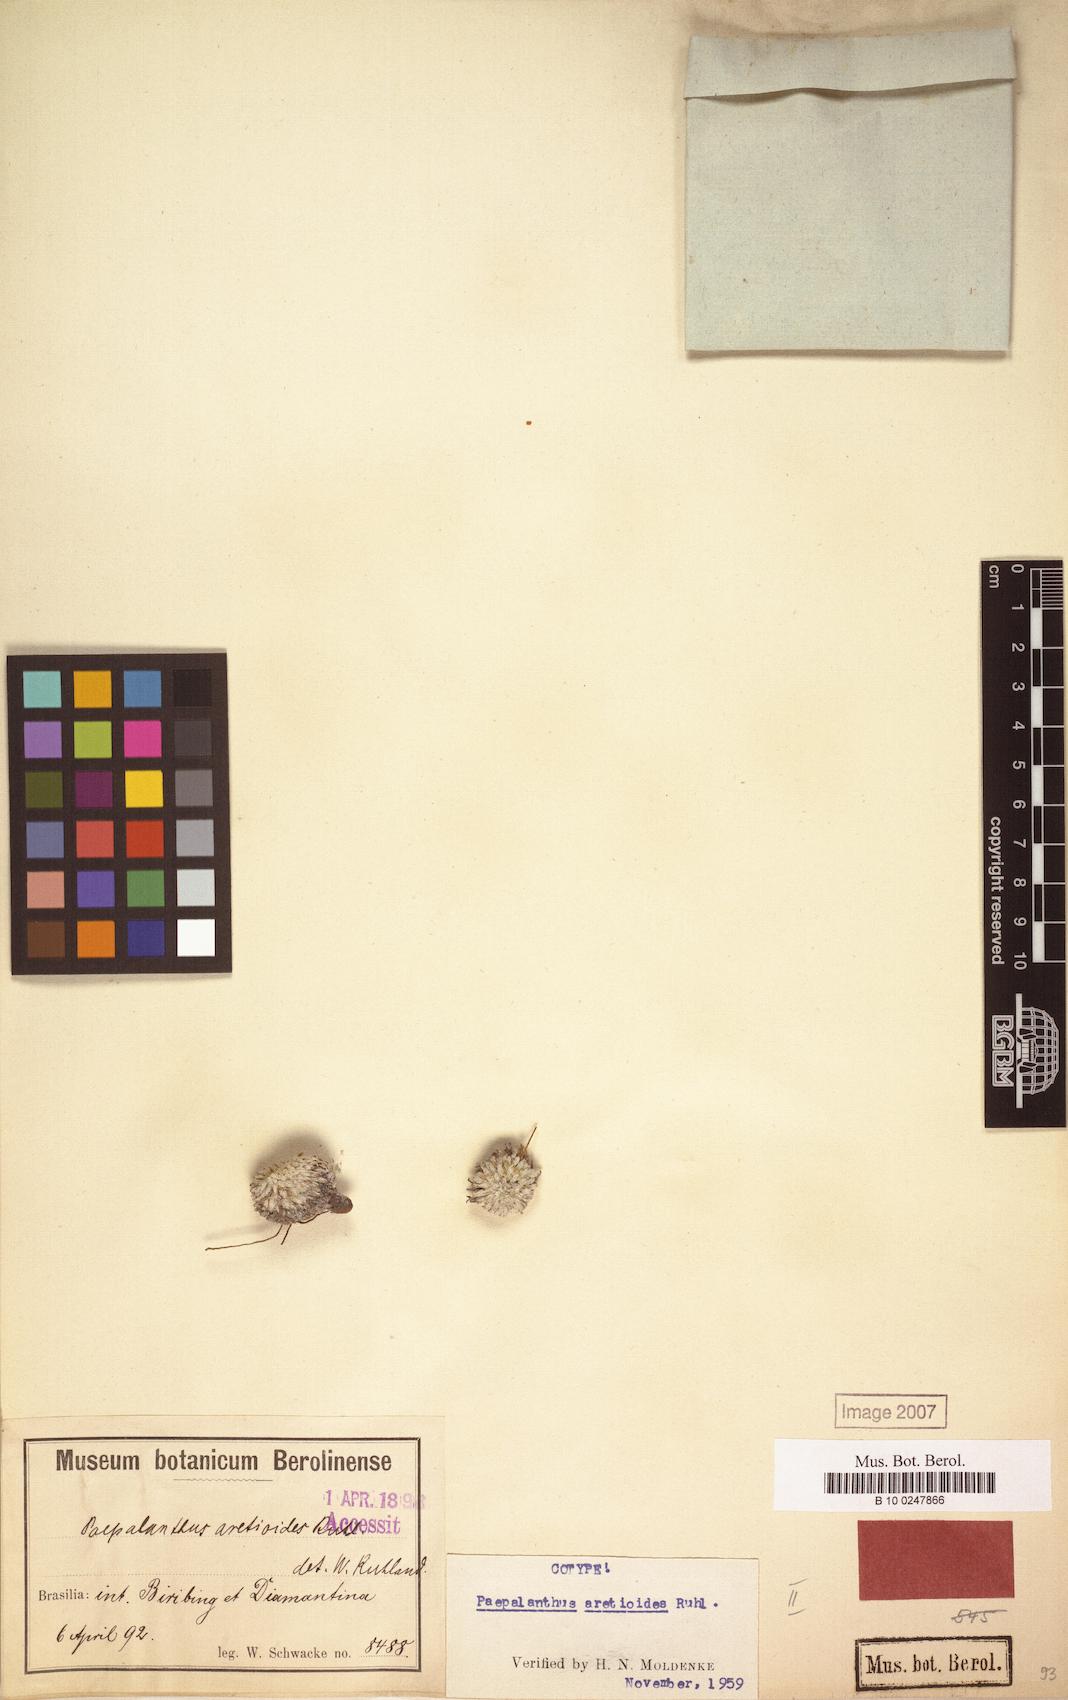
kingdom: Plantae
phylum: Tracheophyta
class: Liliopsida
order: Poales
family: Eriocaulaceae
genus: Paepalanthus
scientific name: Paepalanthus aretioides
